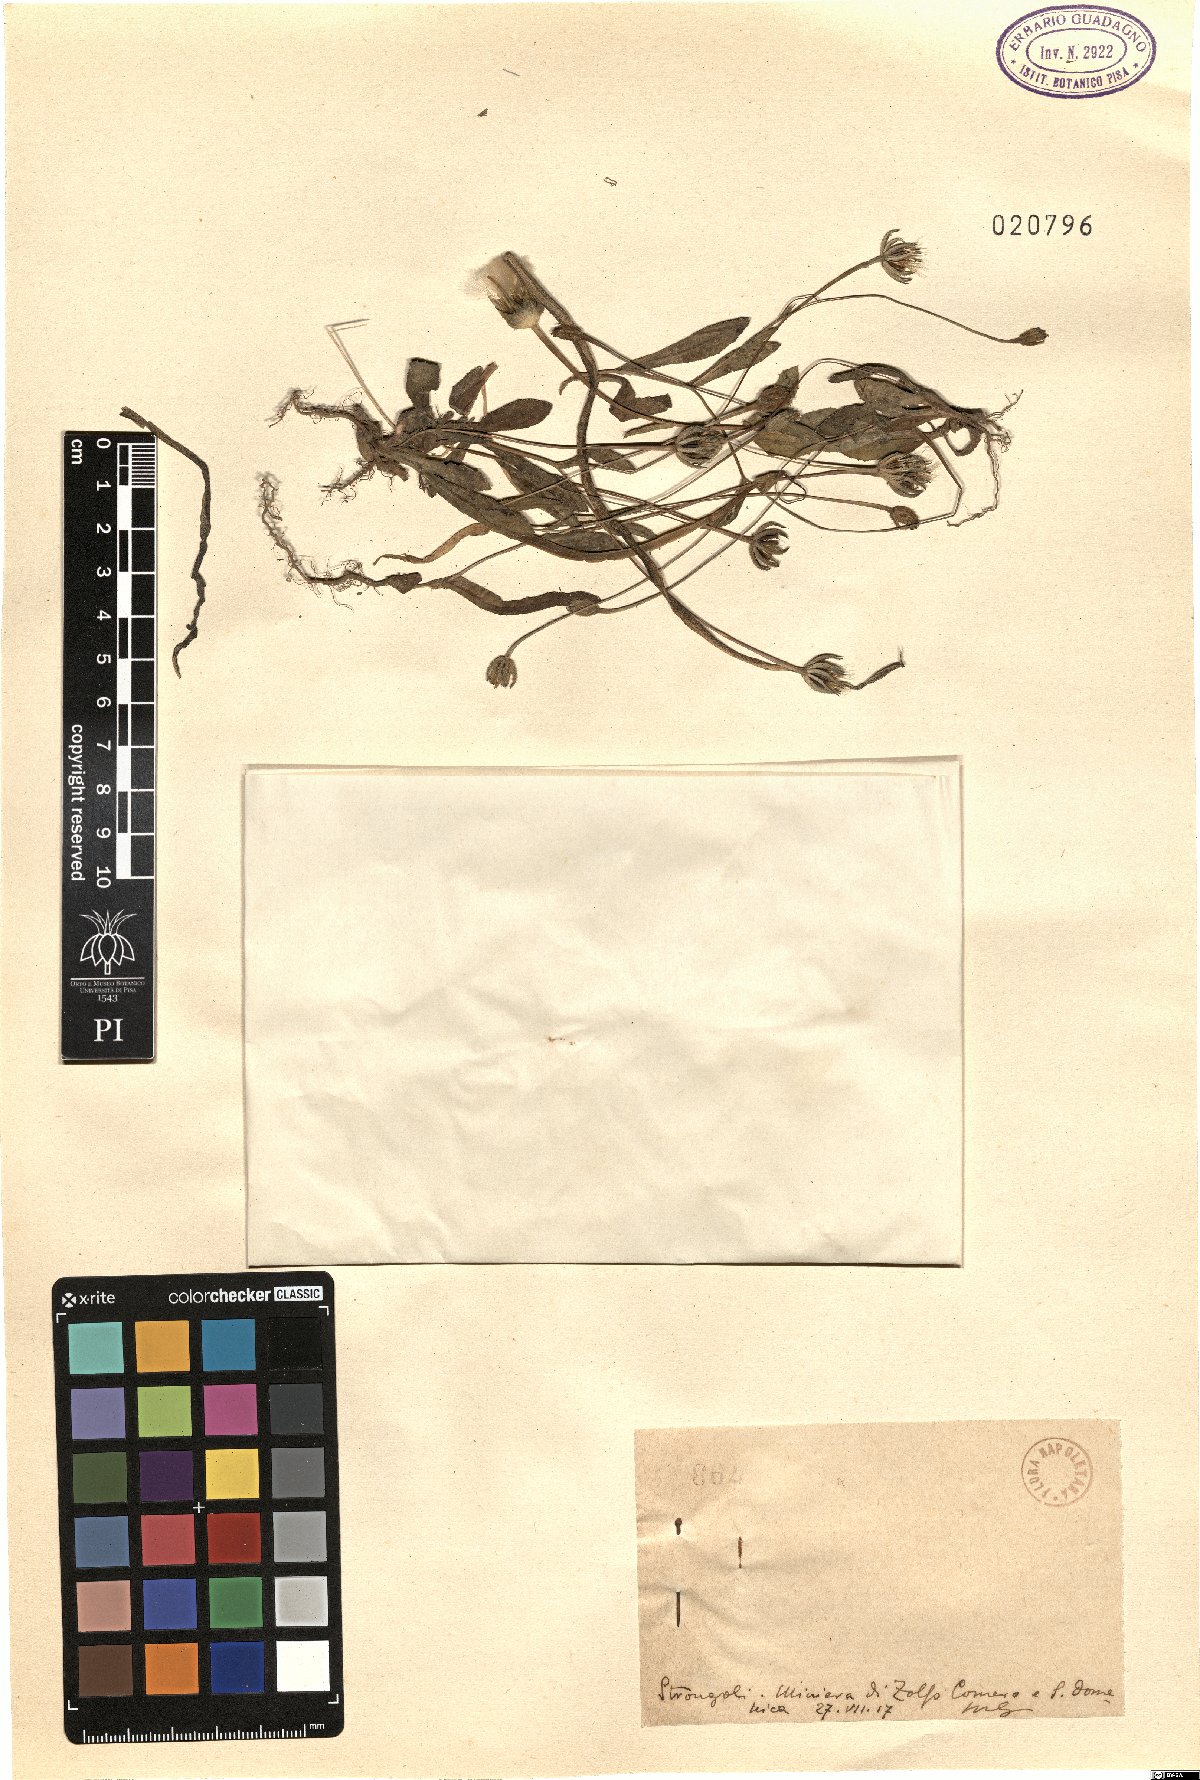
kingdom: Plantae
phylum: Tracheophyta
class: Magnoliopsida
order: Asterales
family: Asteraceae
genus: Rhagadiolus
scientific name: Rhagadiolus
